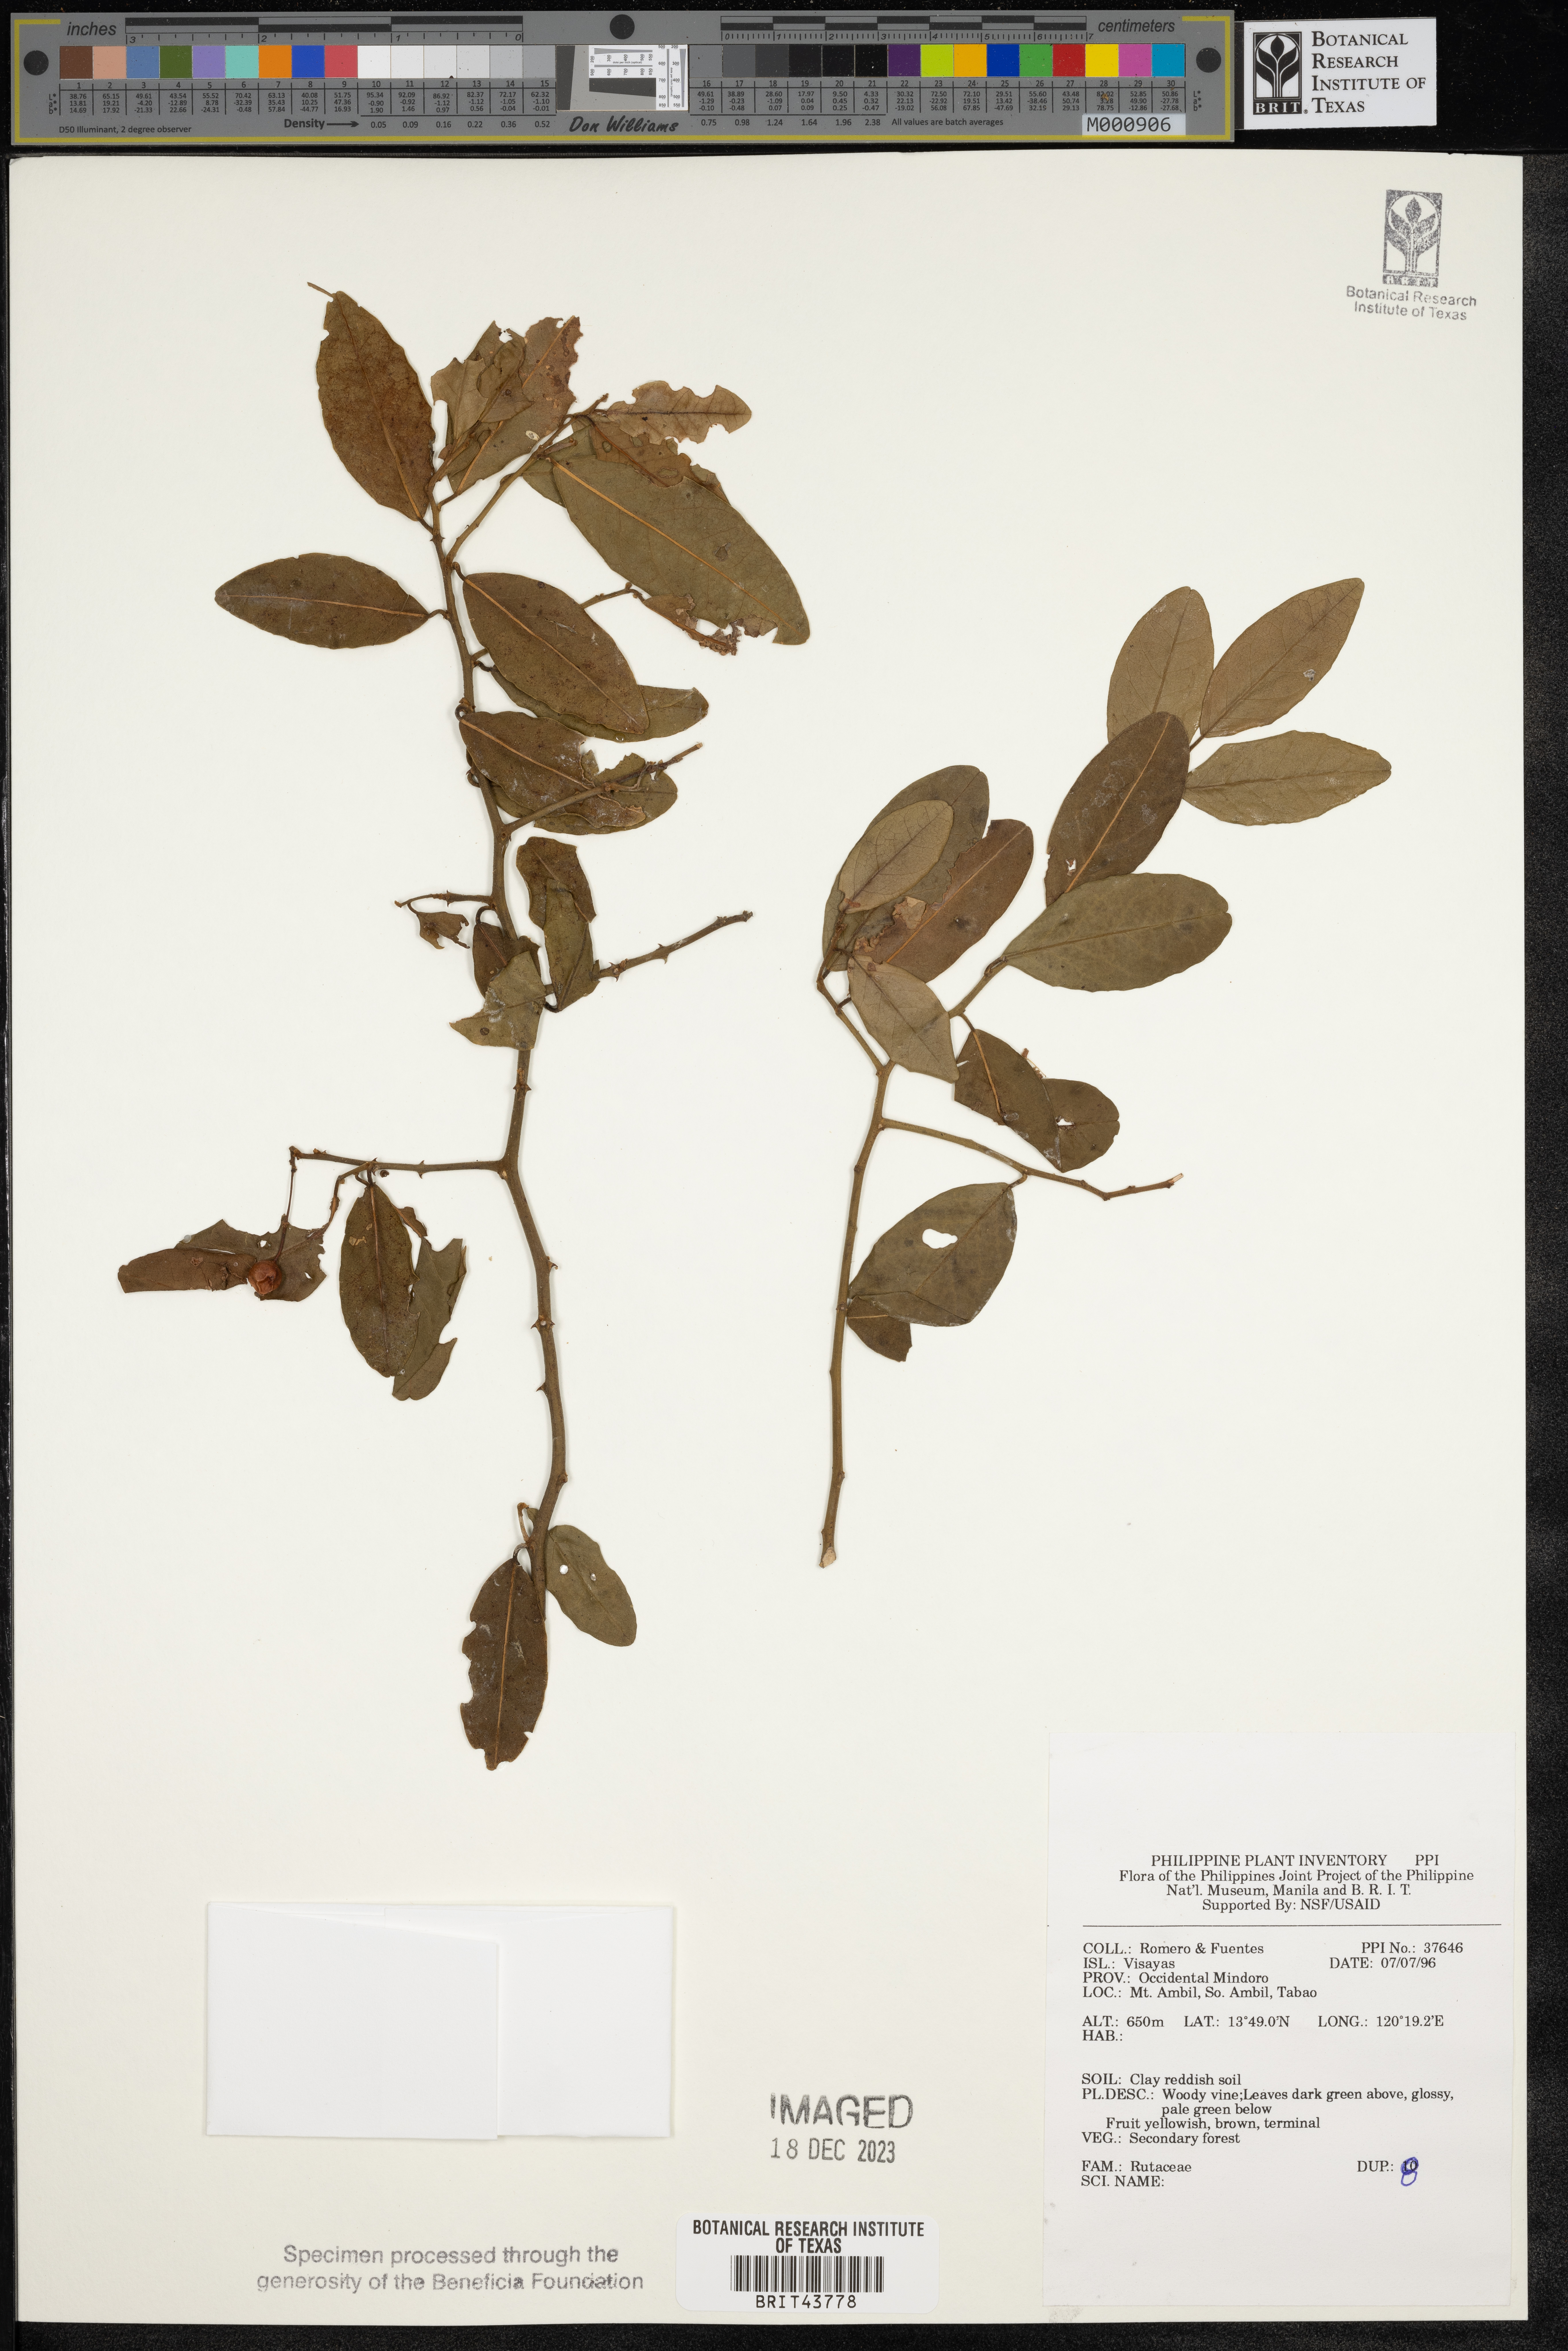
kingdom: Plantae
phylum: Tracheophyta
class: Magnoliopsida
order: Sapindales
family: Rutaceae
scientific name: Rutaceae
